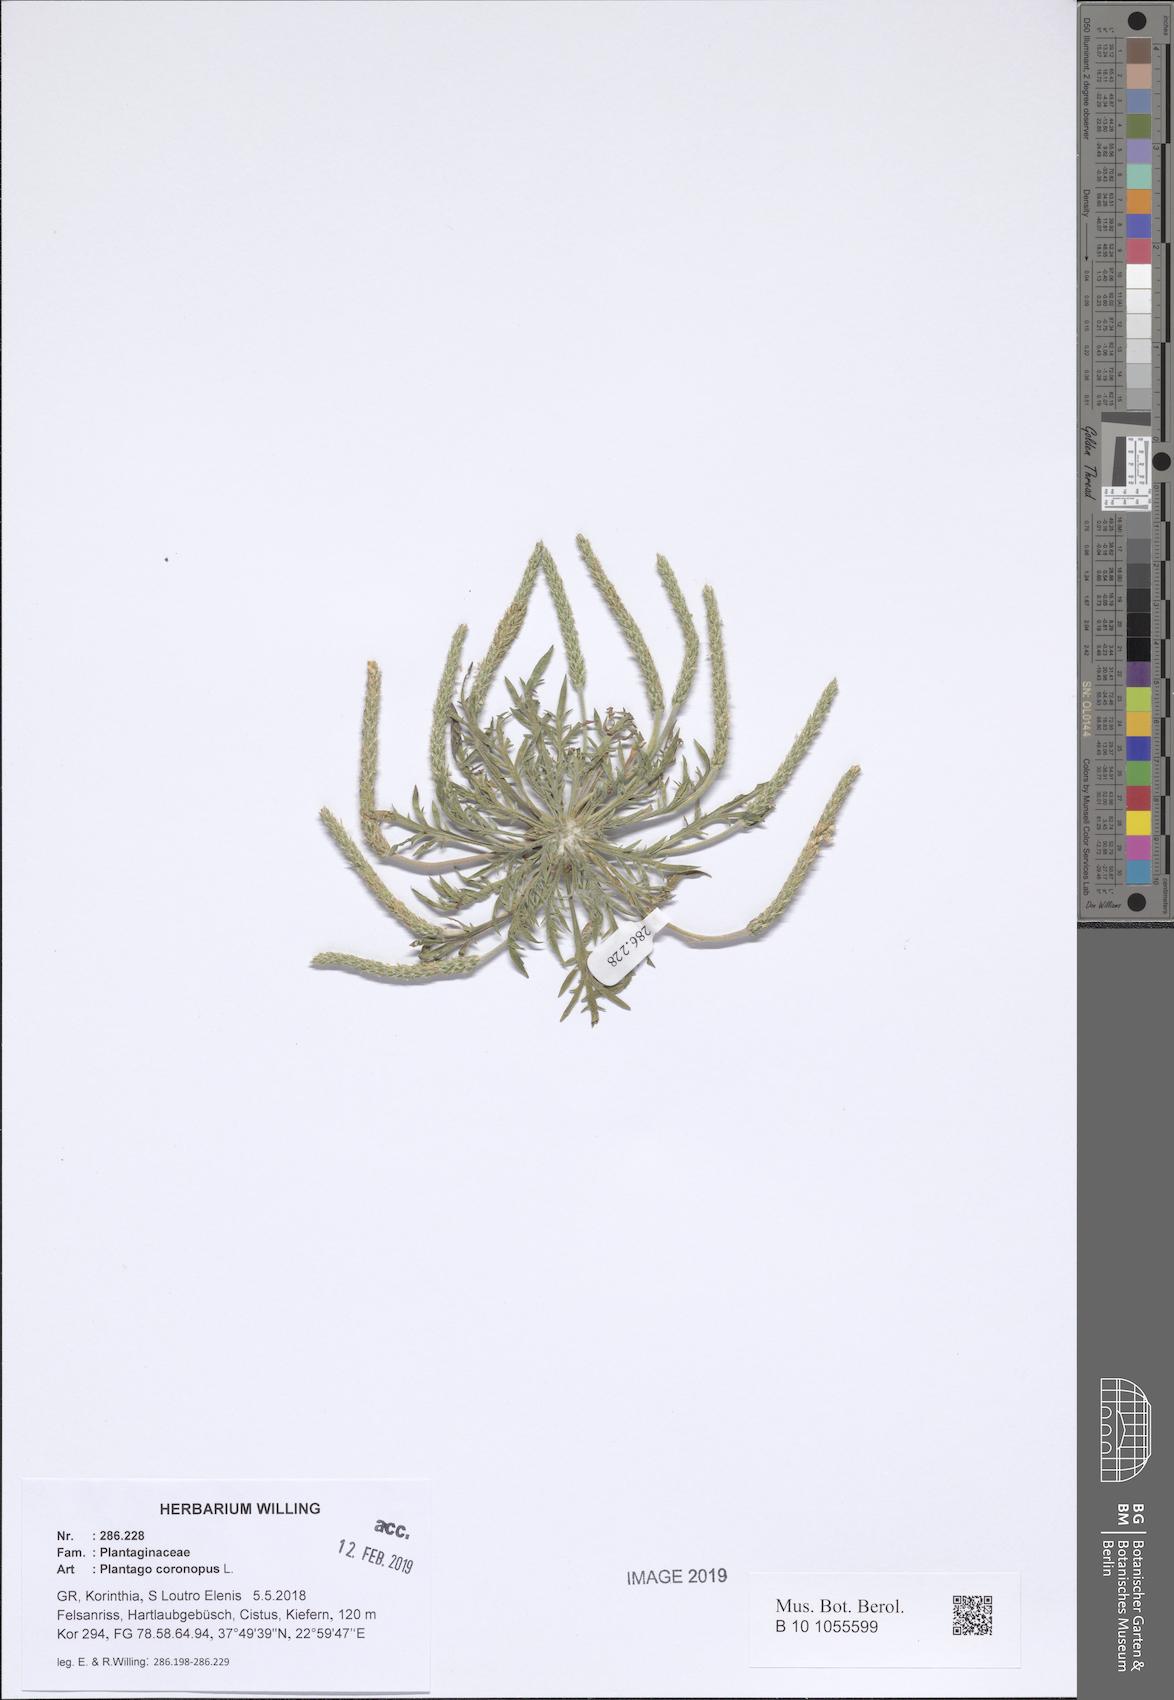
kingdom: Plantae
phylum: Tracheophyta
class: Magnoliopsida
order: Lamiales
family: Plantaginaceae
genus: Plantago
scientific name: Plantago coronopus
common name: Buck's-horn plantain
